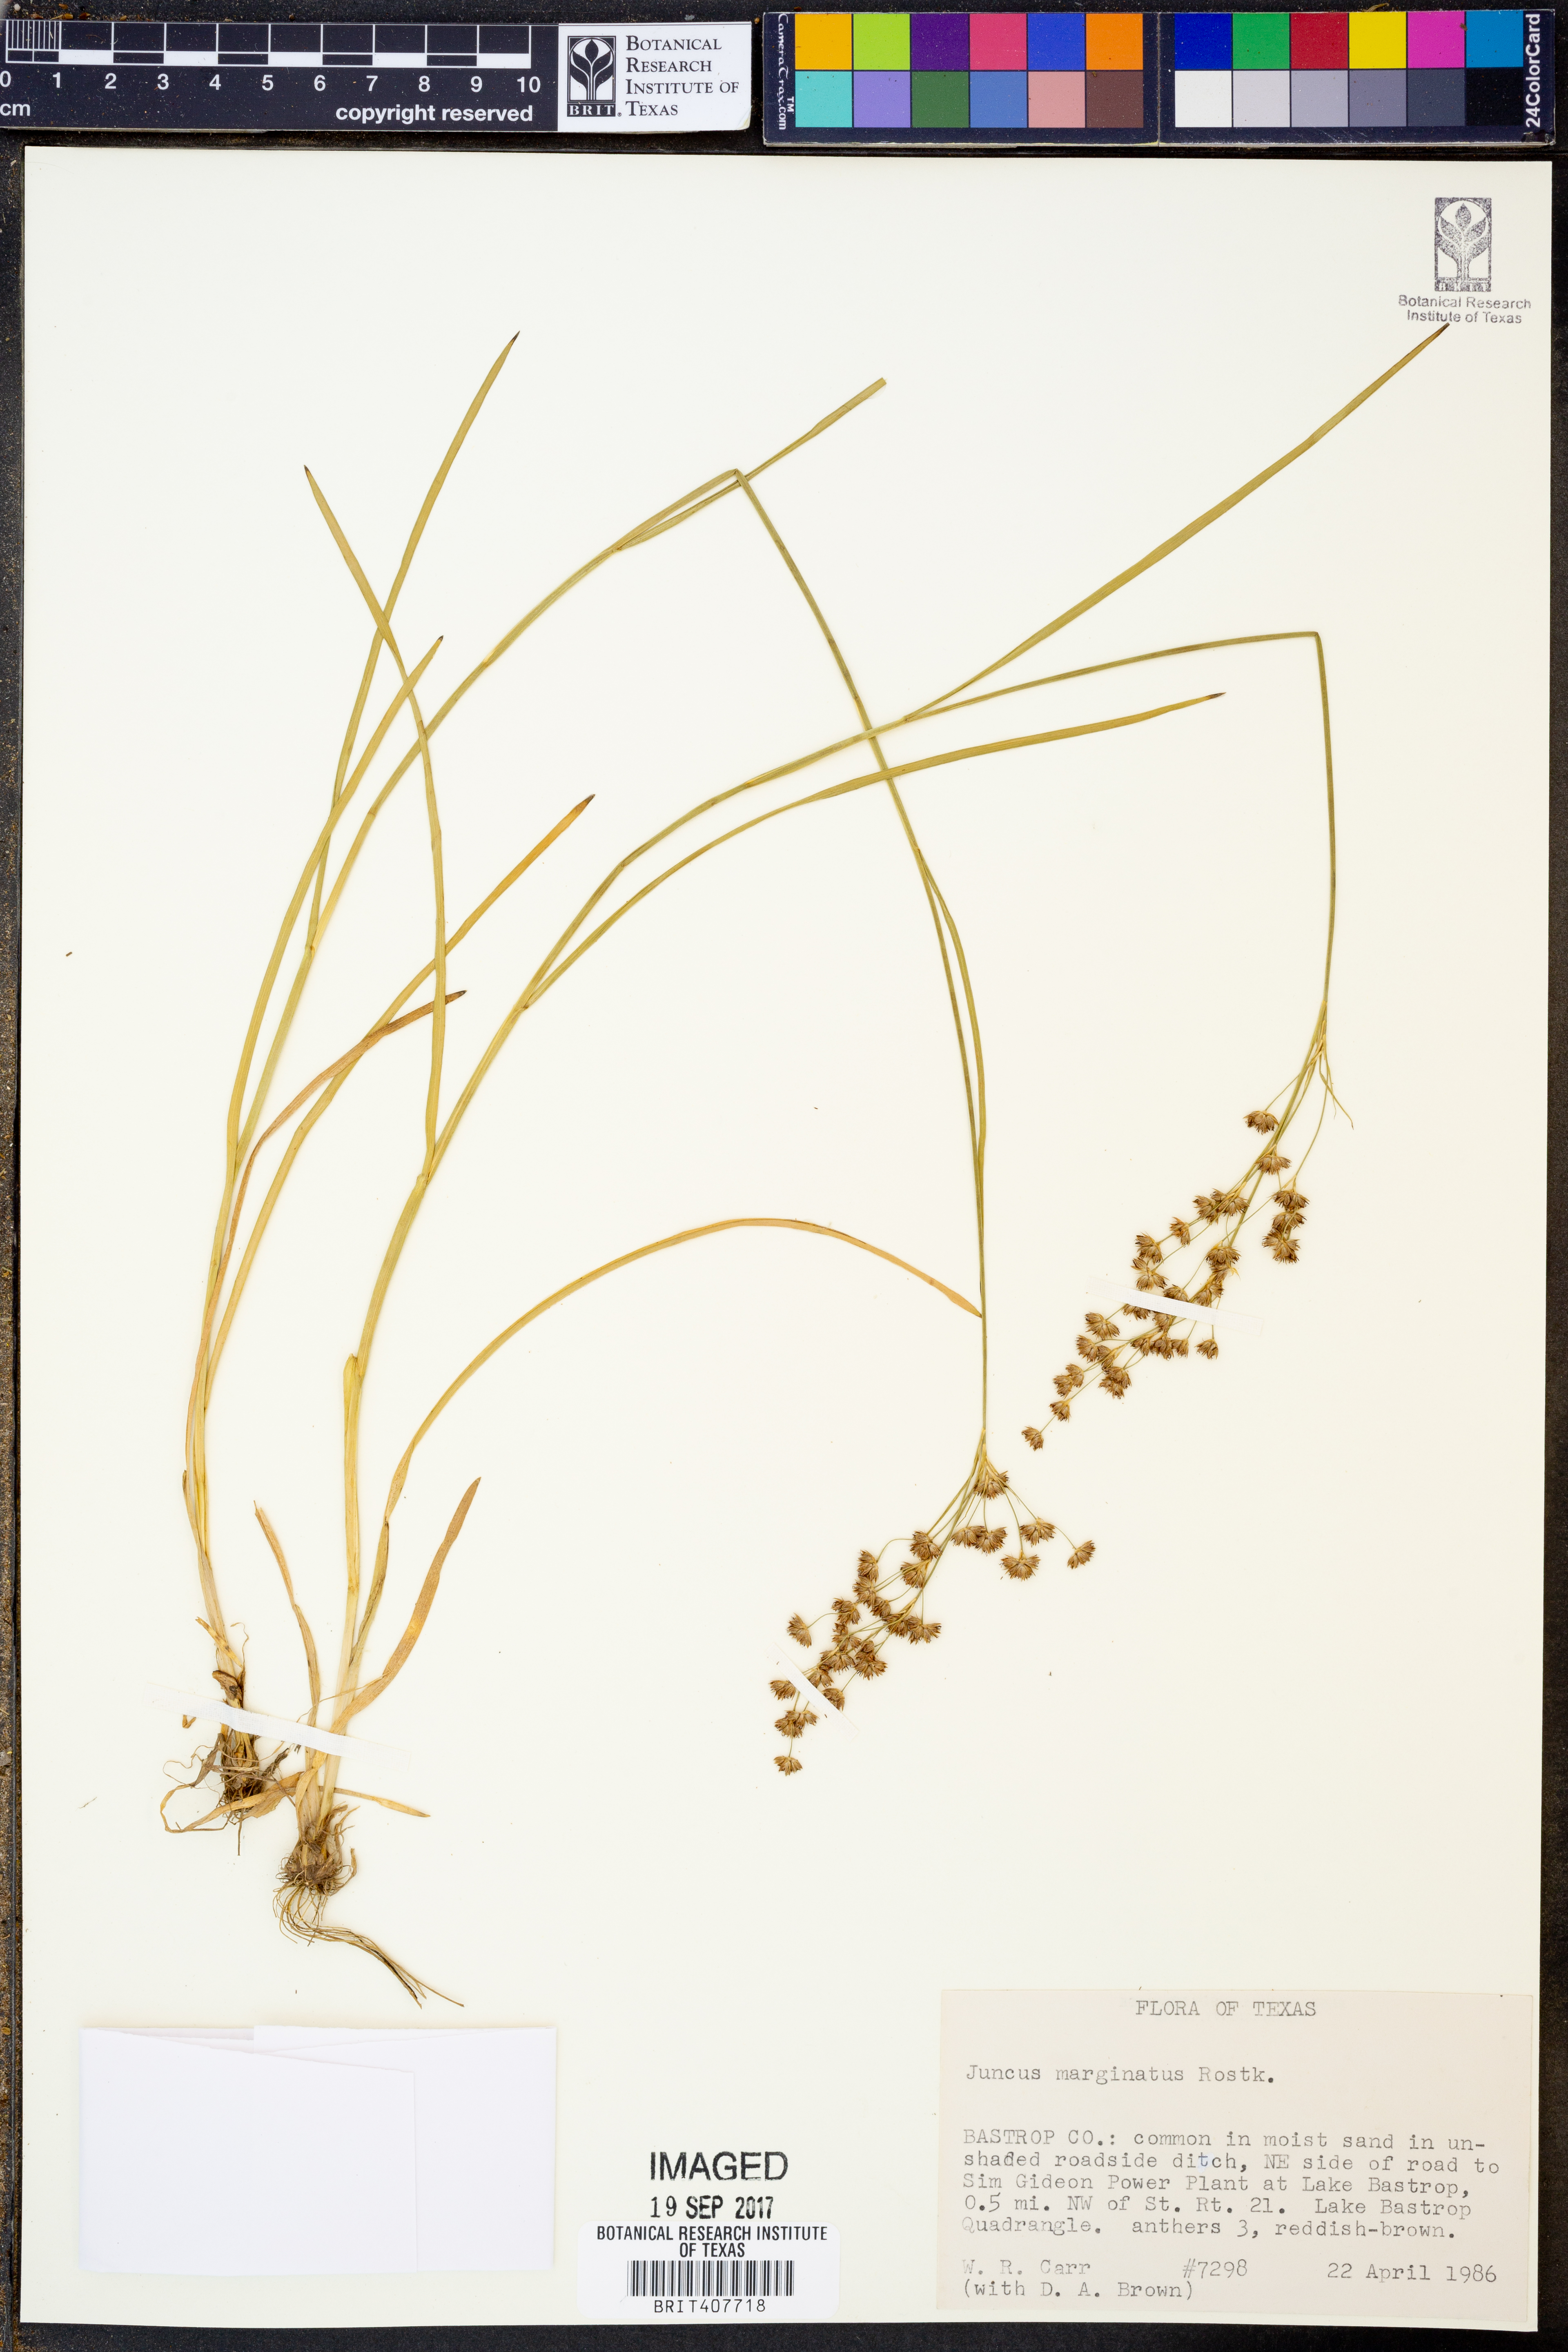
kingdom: Plantae
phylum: Tracheophyta
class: Liliopsida
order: Poales
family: Juncaceae
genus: Juncus
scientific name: Juncus marginatus
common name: Grass-leaf rush
